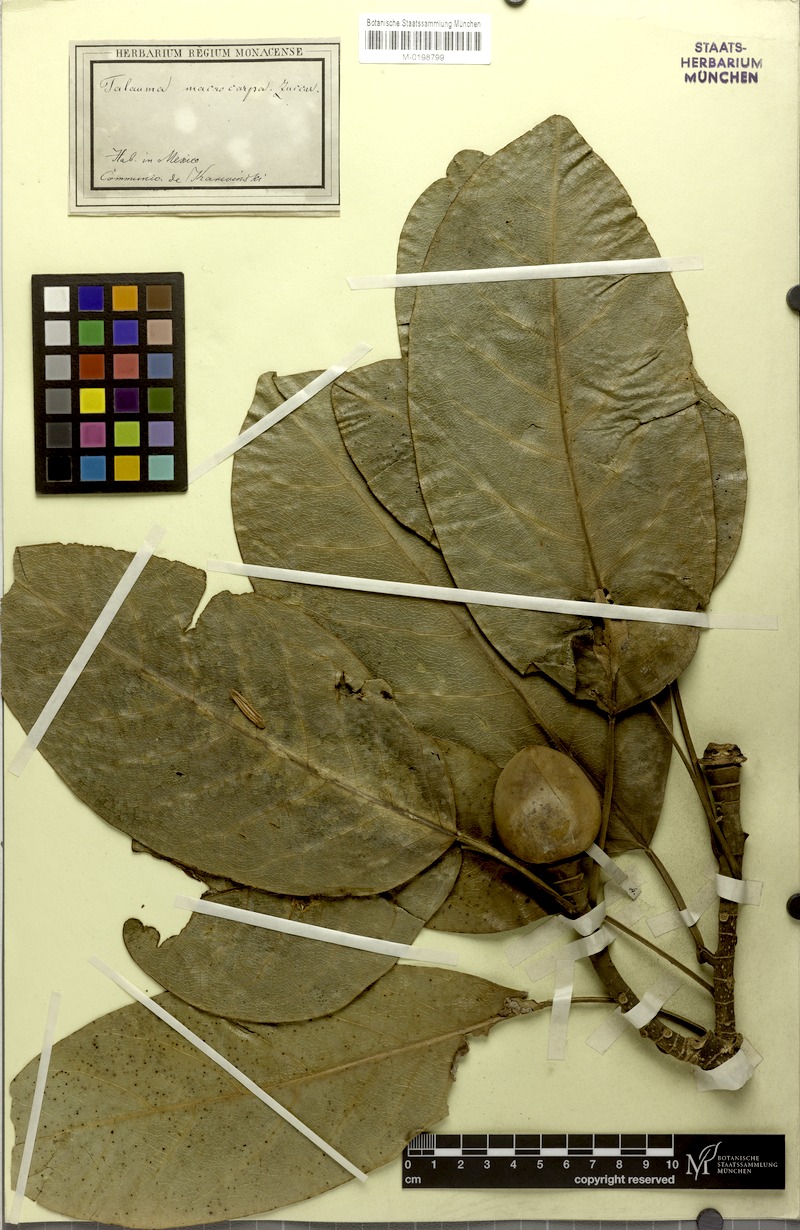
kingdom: Plantae
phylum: Tracheophyta
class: Magnoliopsida
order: Magnoliales
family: Magnoliaceae
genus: Magnolia
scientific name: Magnolia mexicana
